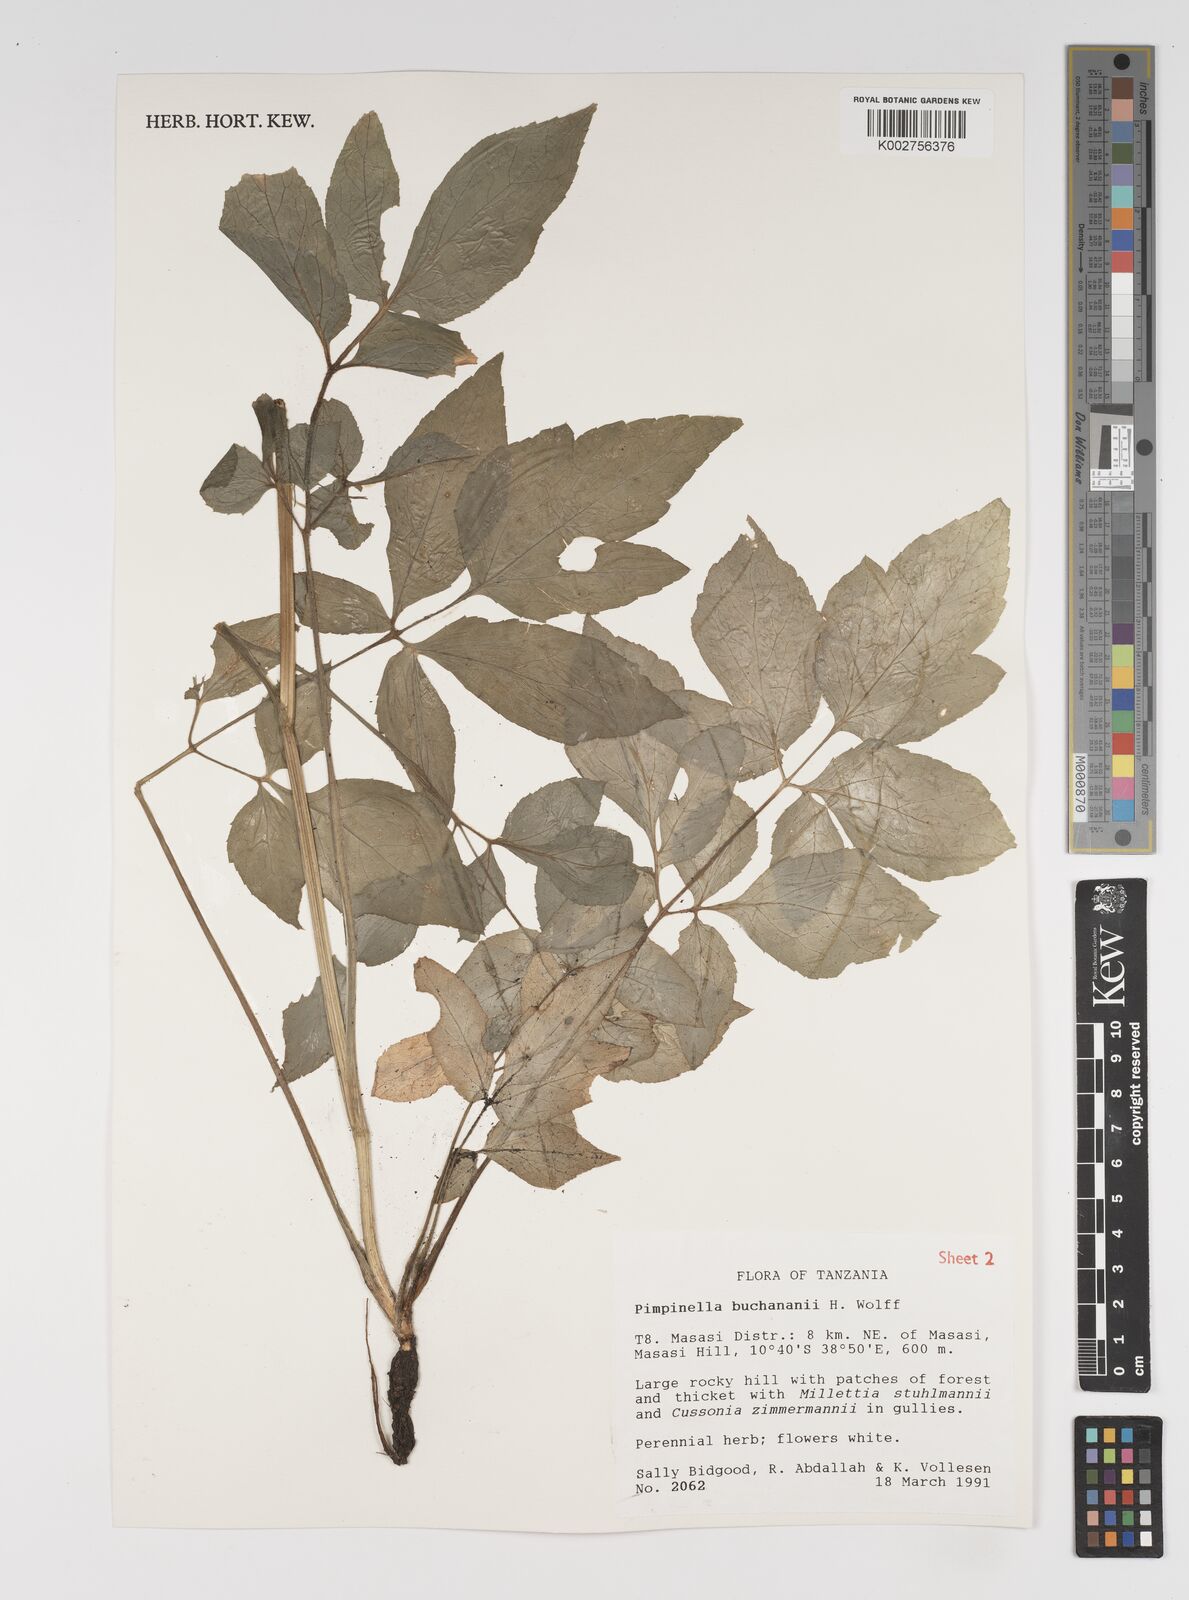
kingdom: Plantae
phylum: Tracheophyta
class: Magnoliopsida
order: Apiales
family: Apiaceae
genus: Pimpinella
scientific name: Pimpinella buchananii
